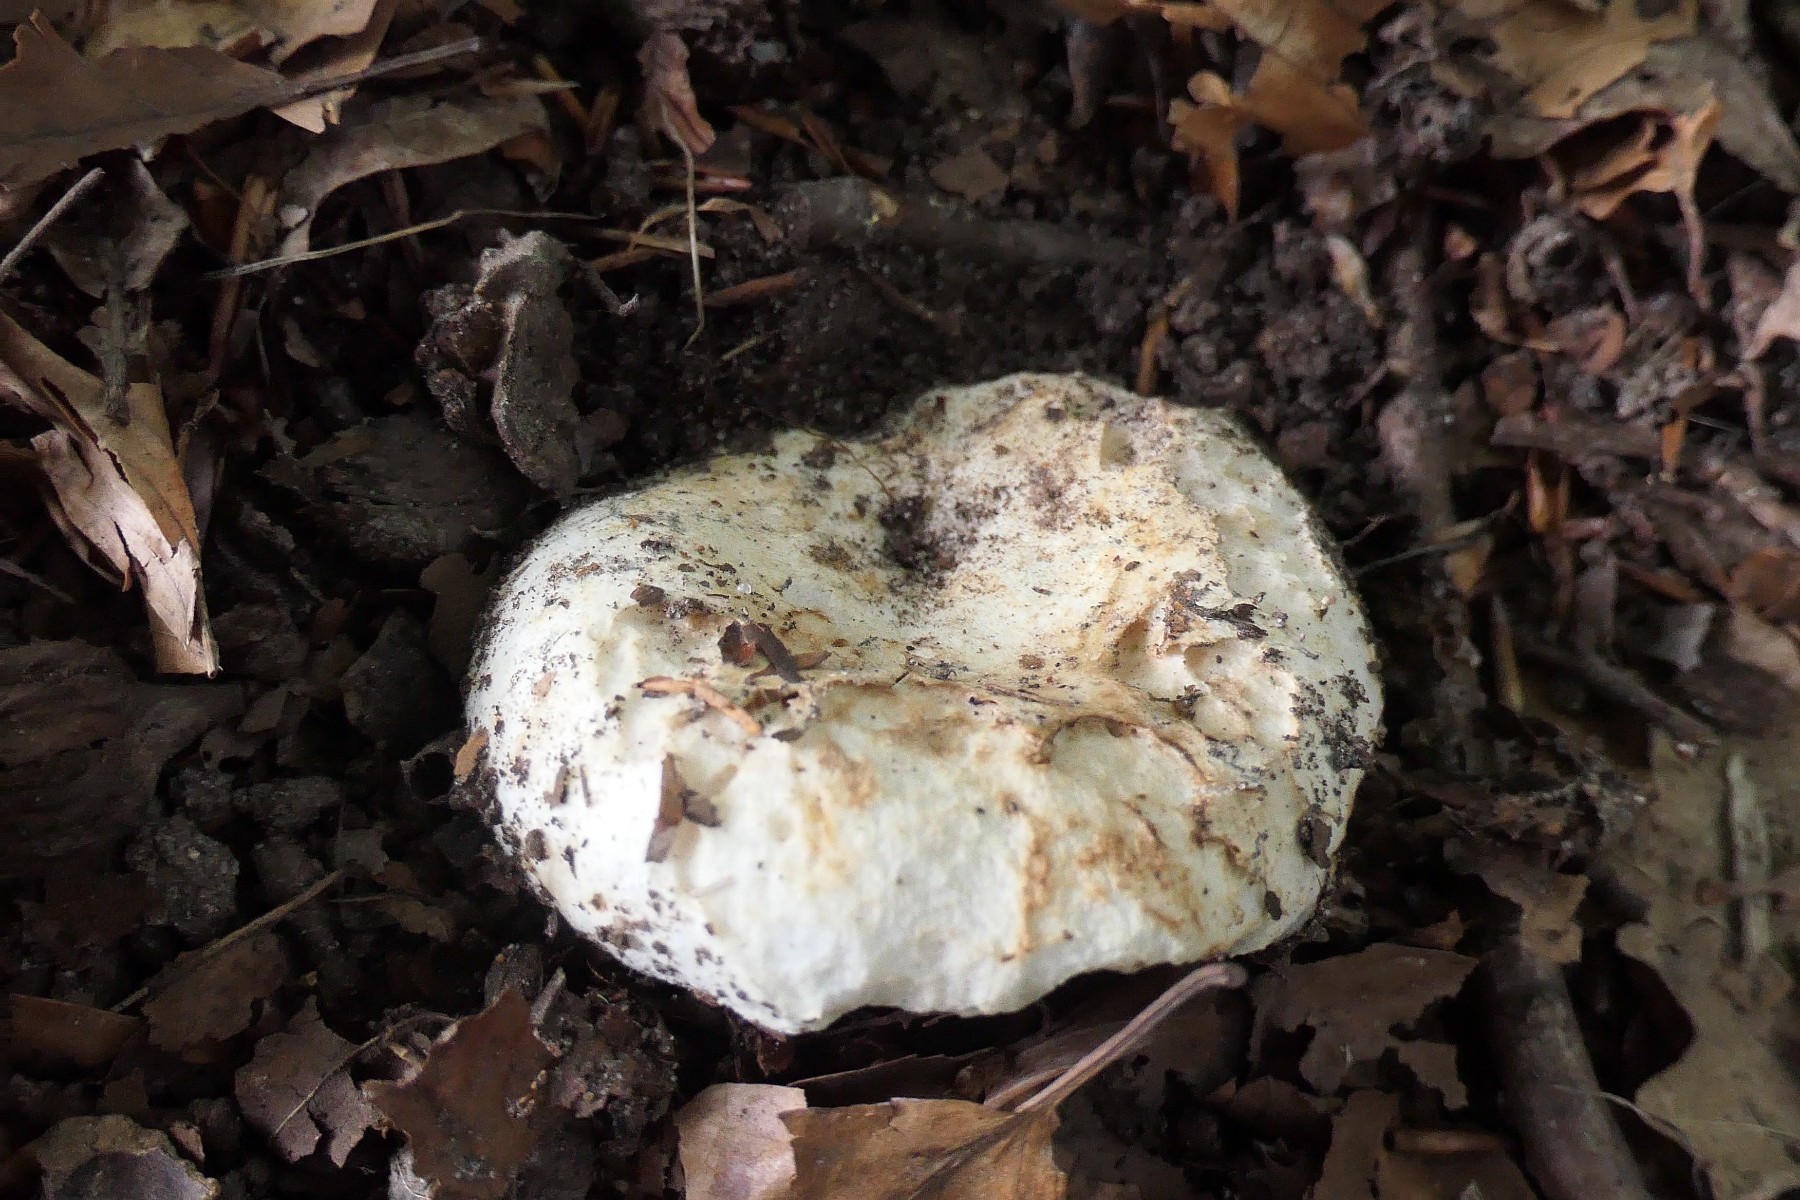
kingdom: Fungi
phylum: Basidiomycota
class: Agaricomycetes
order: Russulales
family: Russulaceae
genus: Russula
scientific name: Russula chloroides
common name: grønhalset tragt-skørhat
